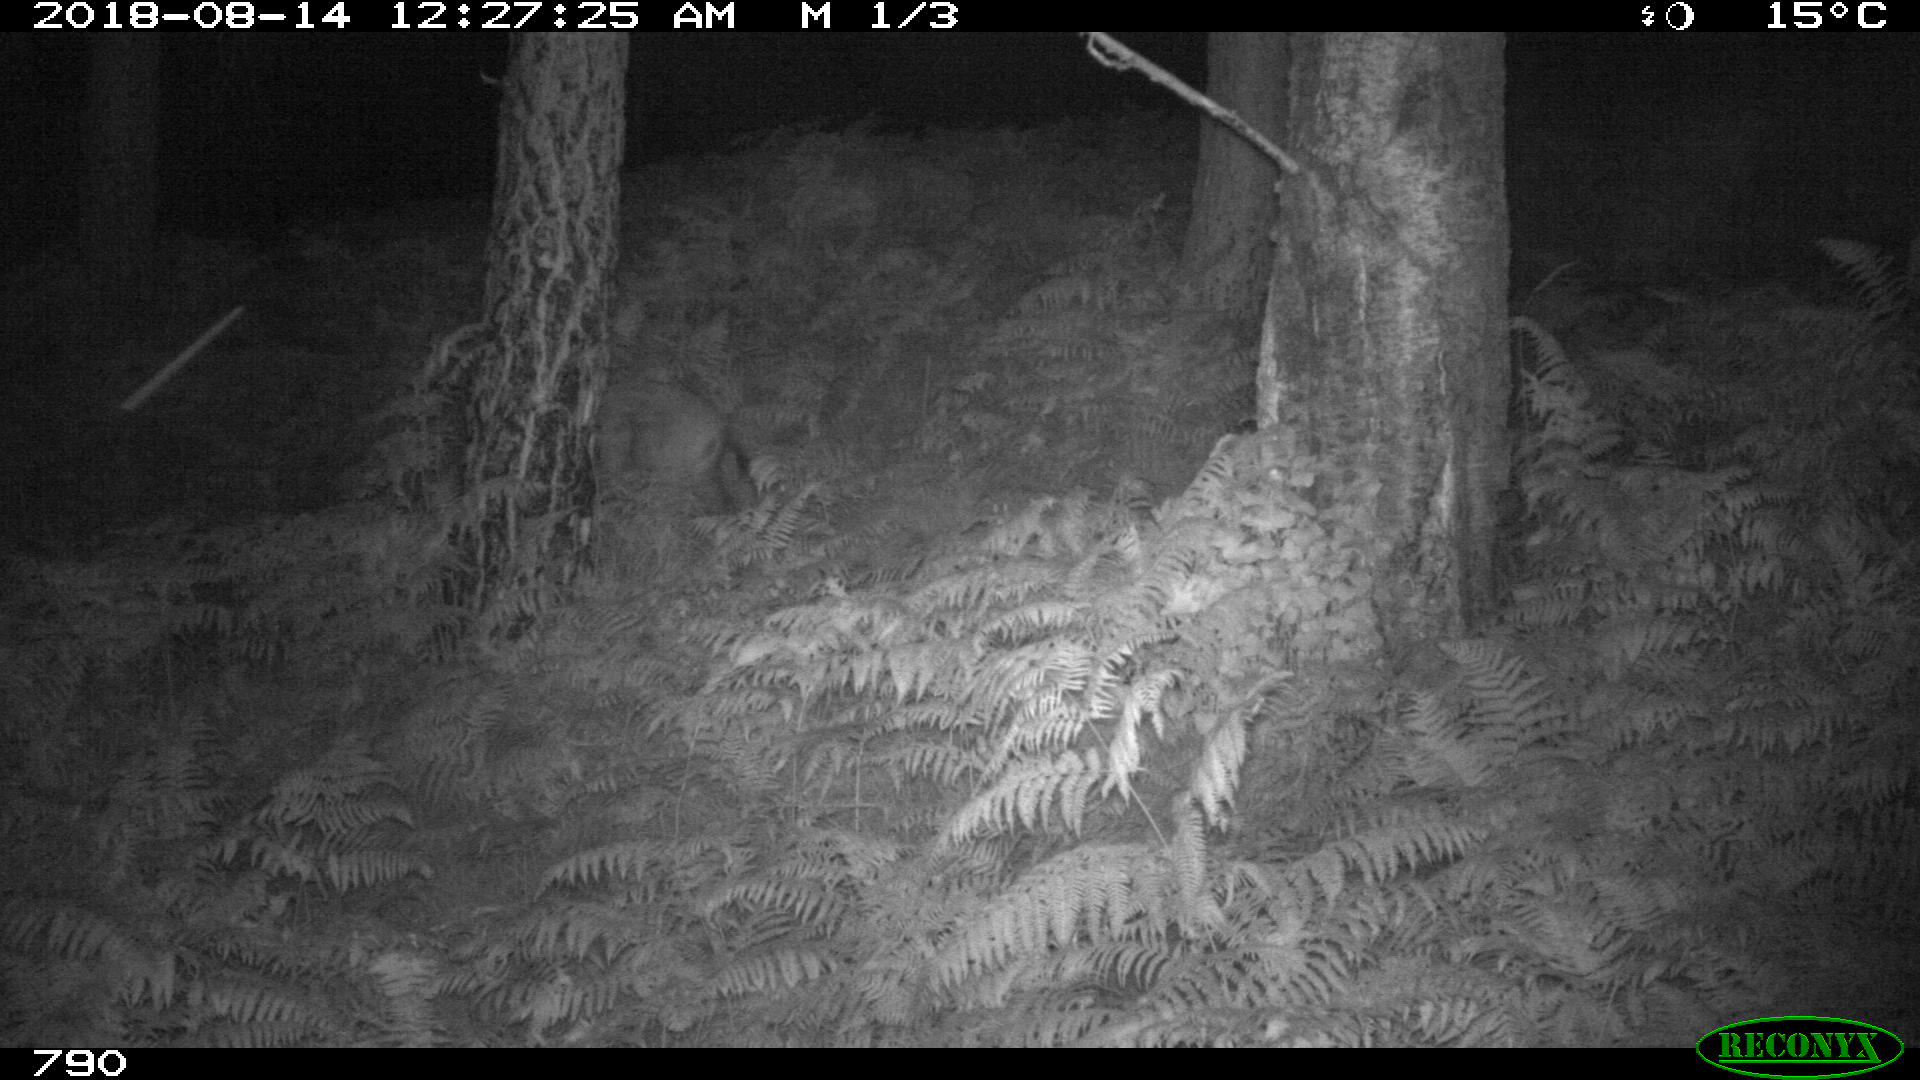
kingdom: Animalia
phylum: Chordata
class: Mammalia
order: Artiodactyla
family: Suidae
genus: Sus
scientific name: Sus scrofa
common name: Wild boar
